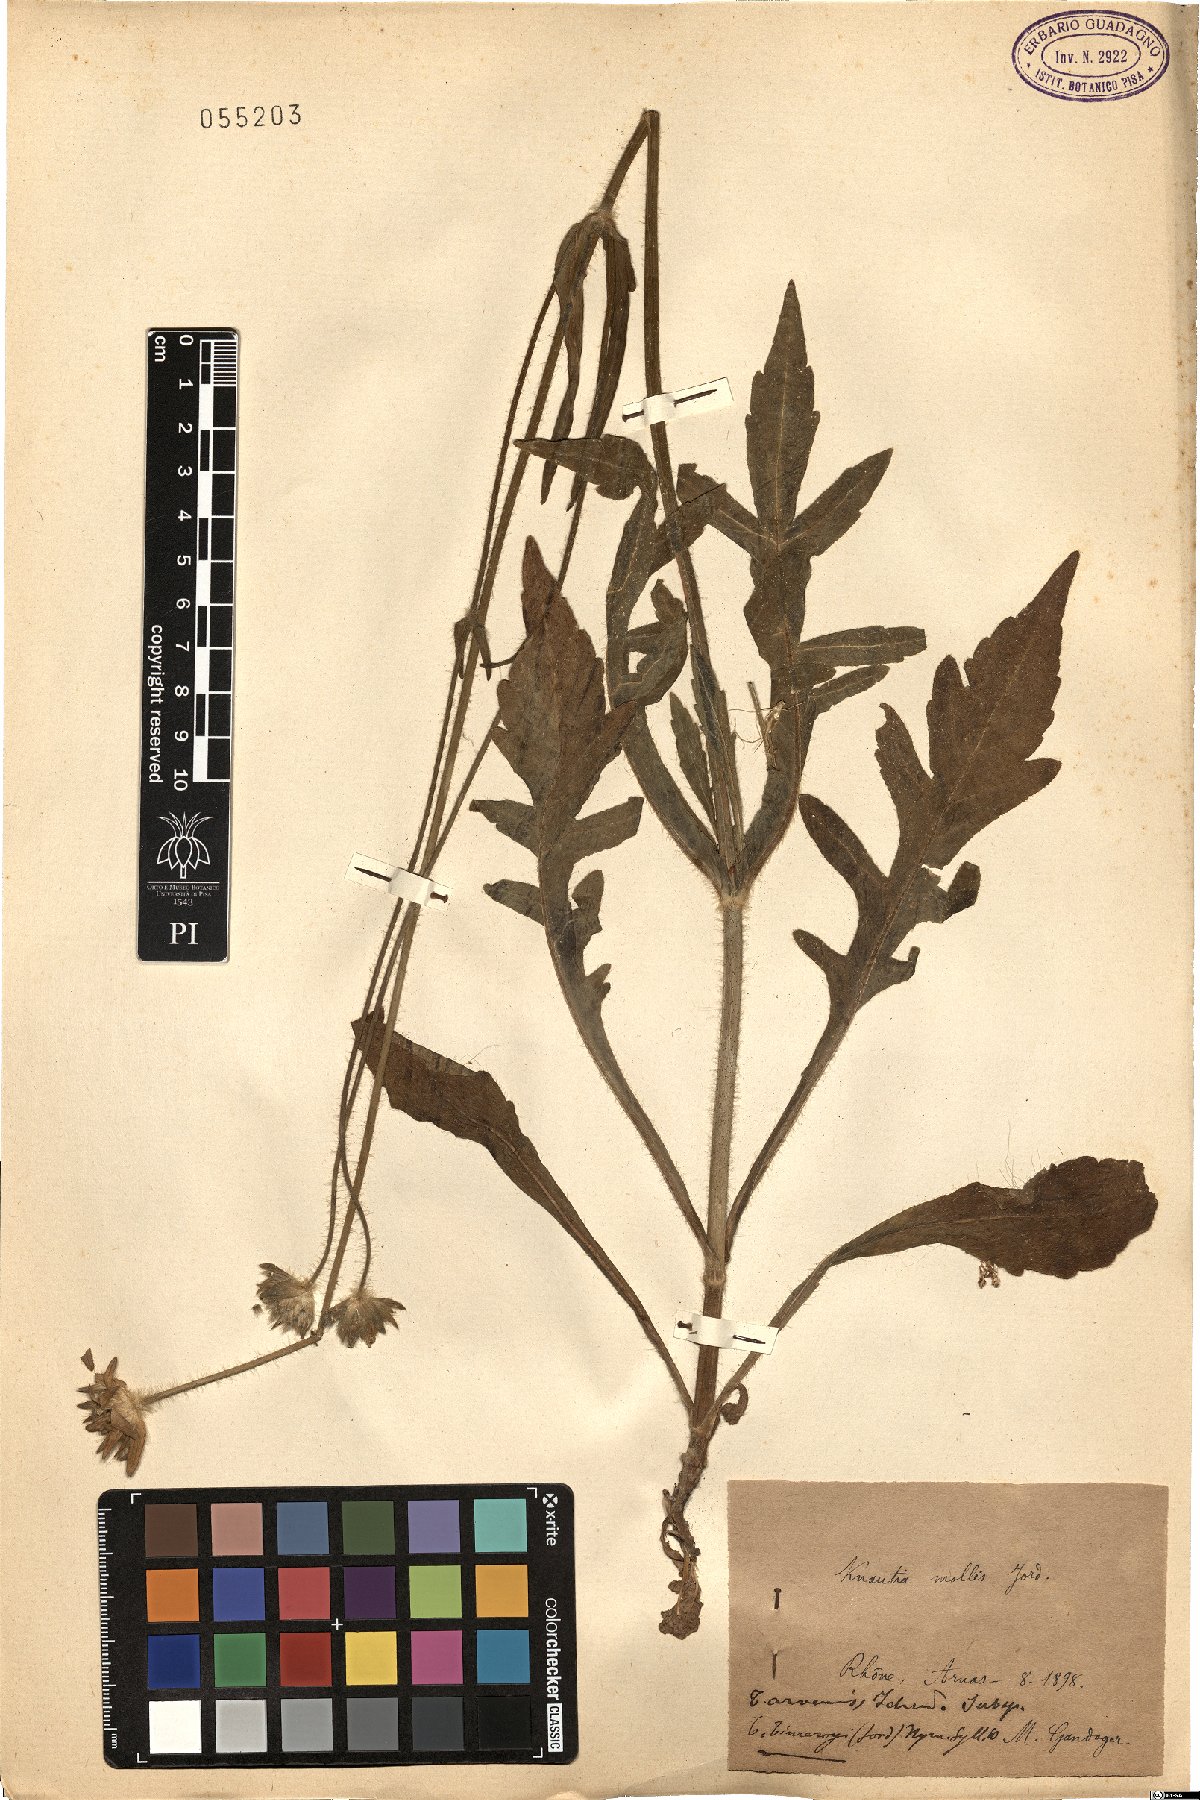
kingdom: Plantae
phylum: Tracheophyta
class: Magnoliopsida
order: Dipsacales
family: Caprifoliaceae
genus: Knautia
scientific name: Knautia mollis
